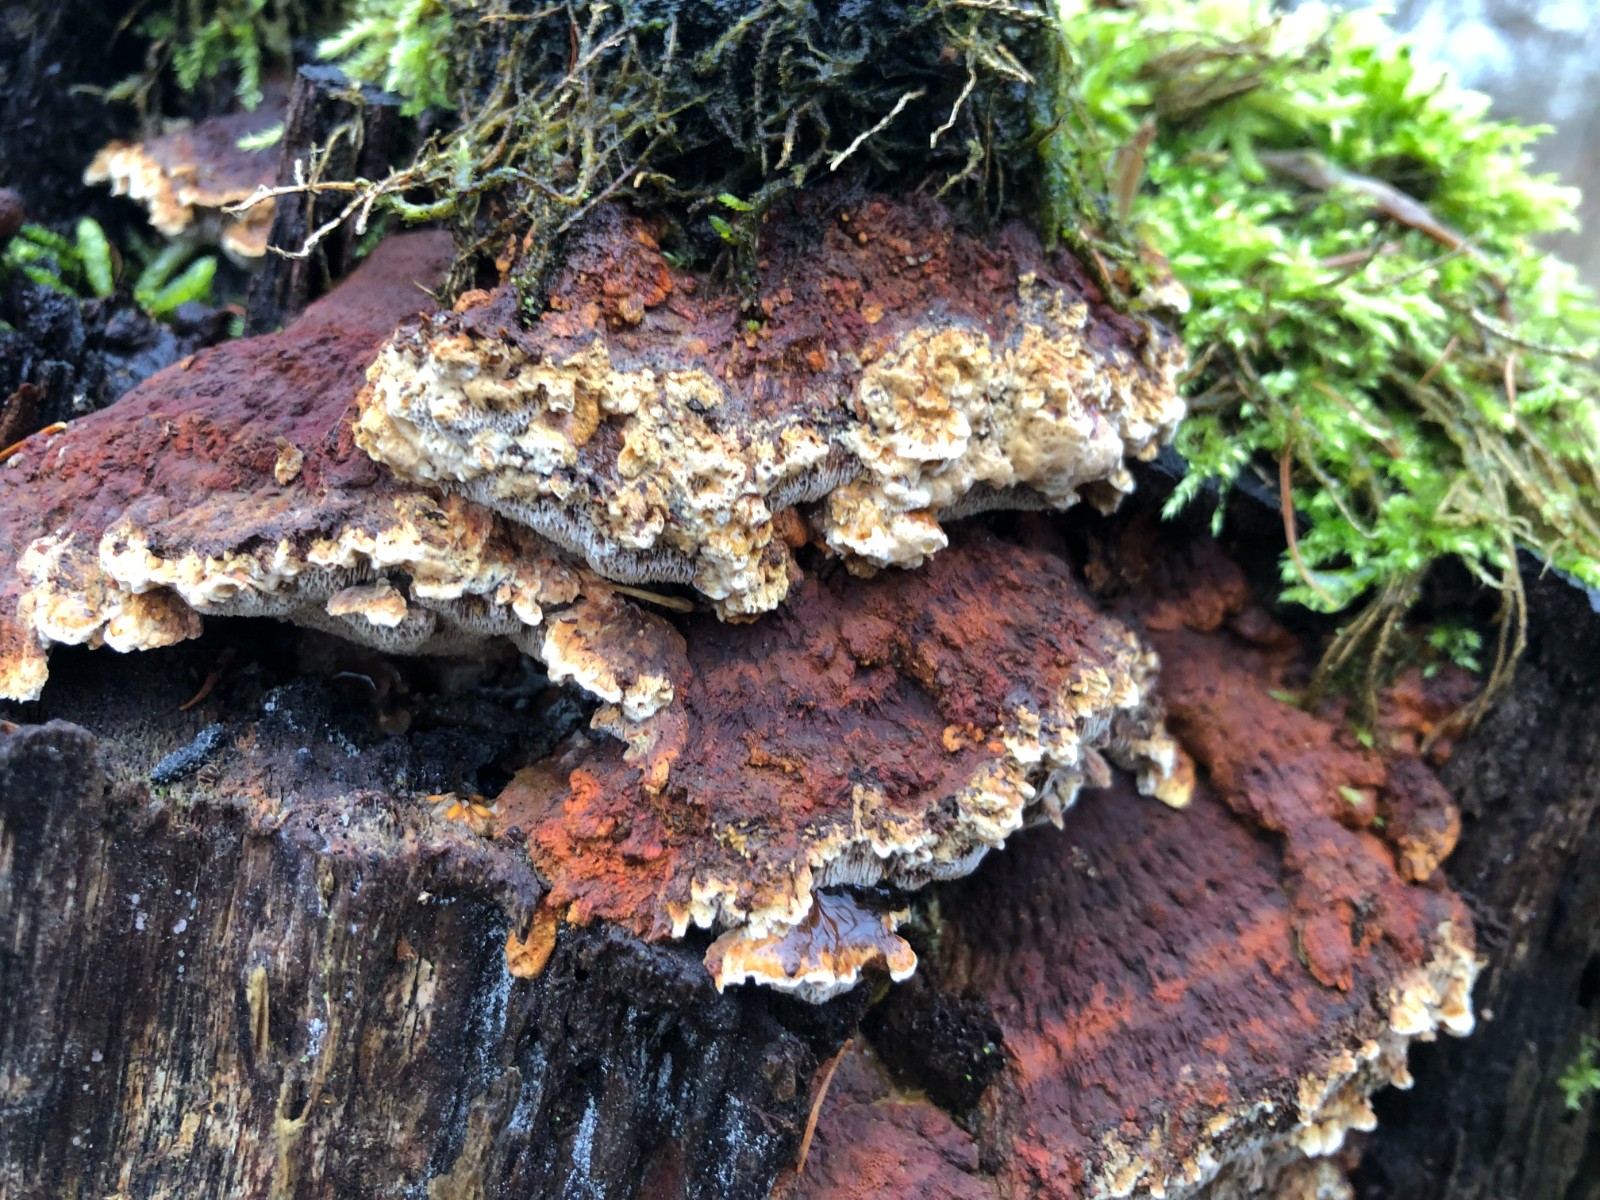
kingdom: Fungi
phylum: Basidiomycota
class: Agaricomycetes
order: Polyporales
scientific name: Polyporales
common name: poresvampordenen
